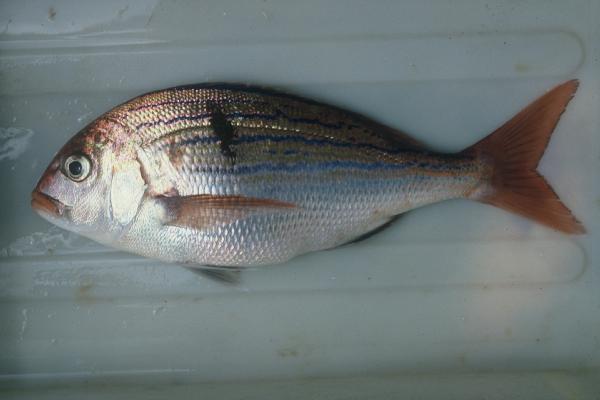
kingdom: Animalia
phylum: Chordata
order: Perciformes
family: Sparidae
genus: Polysteganus
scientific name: Polysteganus undulosus
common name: Seventy-four seabream
